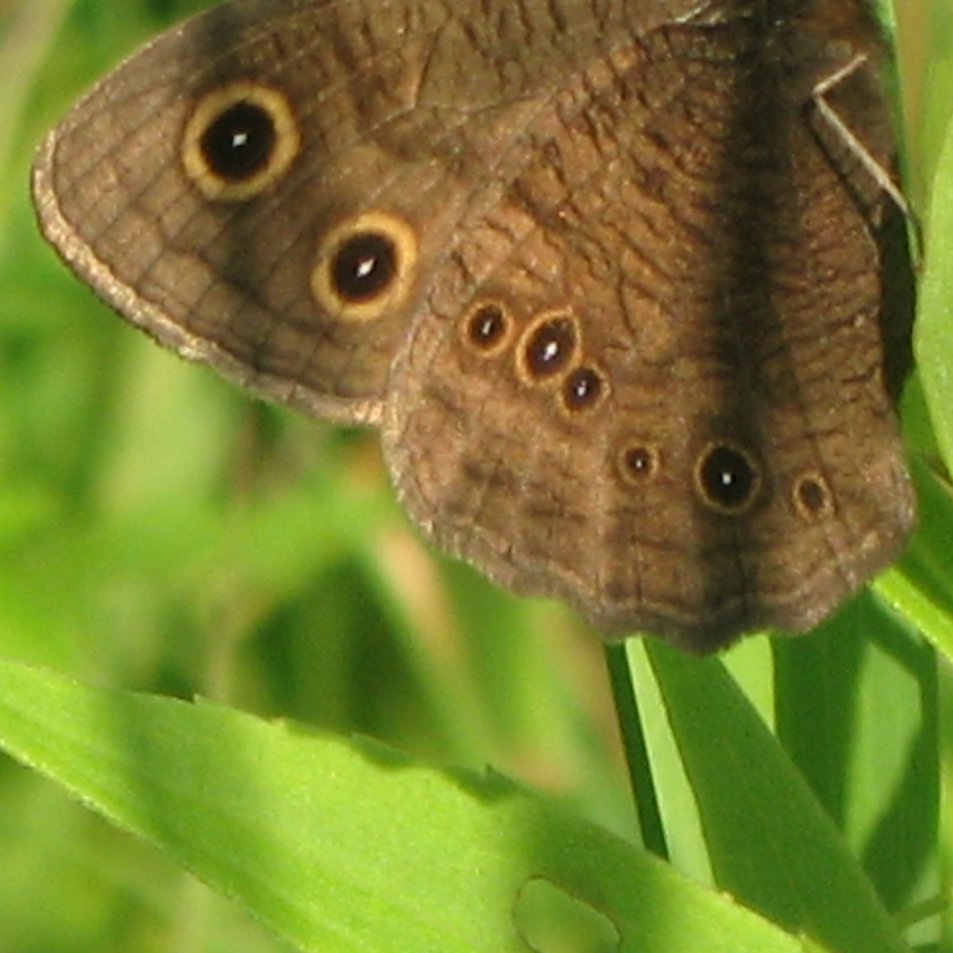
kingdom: Animalia
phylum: Arthropoda
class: Insecta
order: Lepidoptera
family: Nymphalidae
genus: Cercyonis
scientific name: Cercyonis pegala
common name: Common Wood-Nymph
